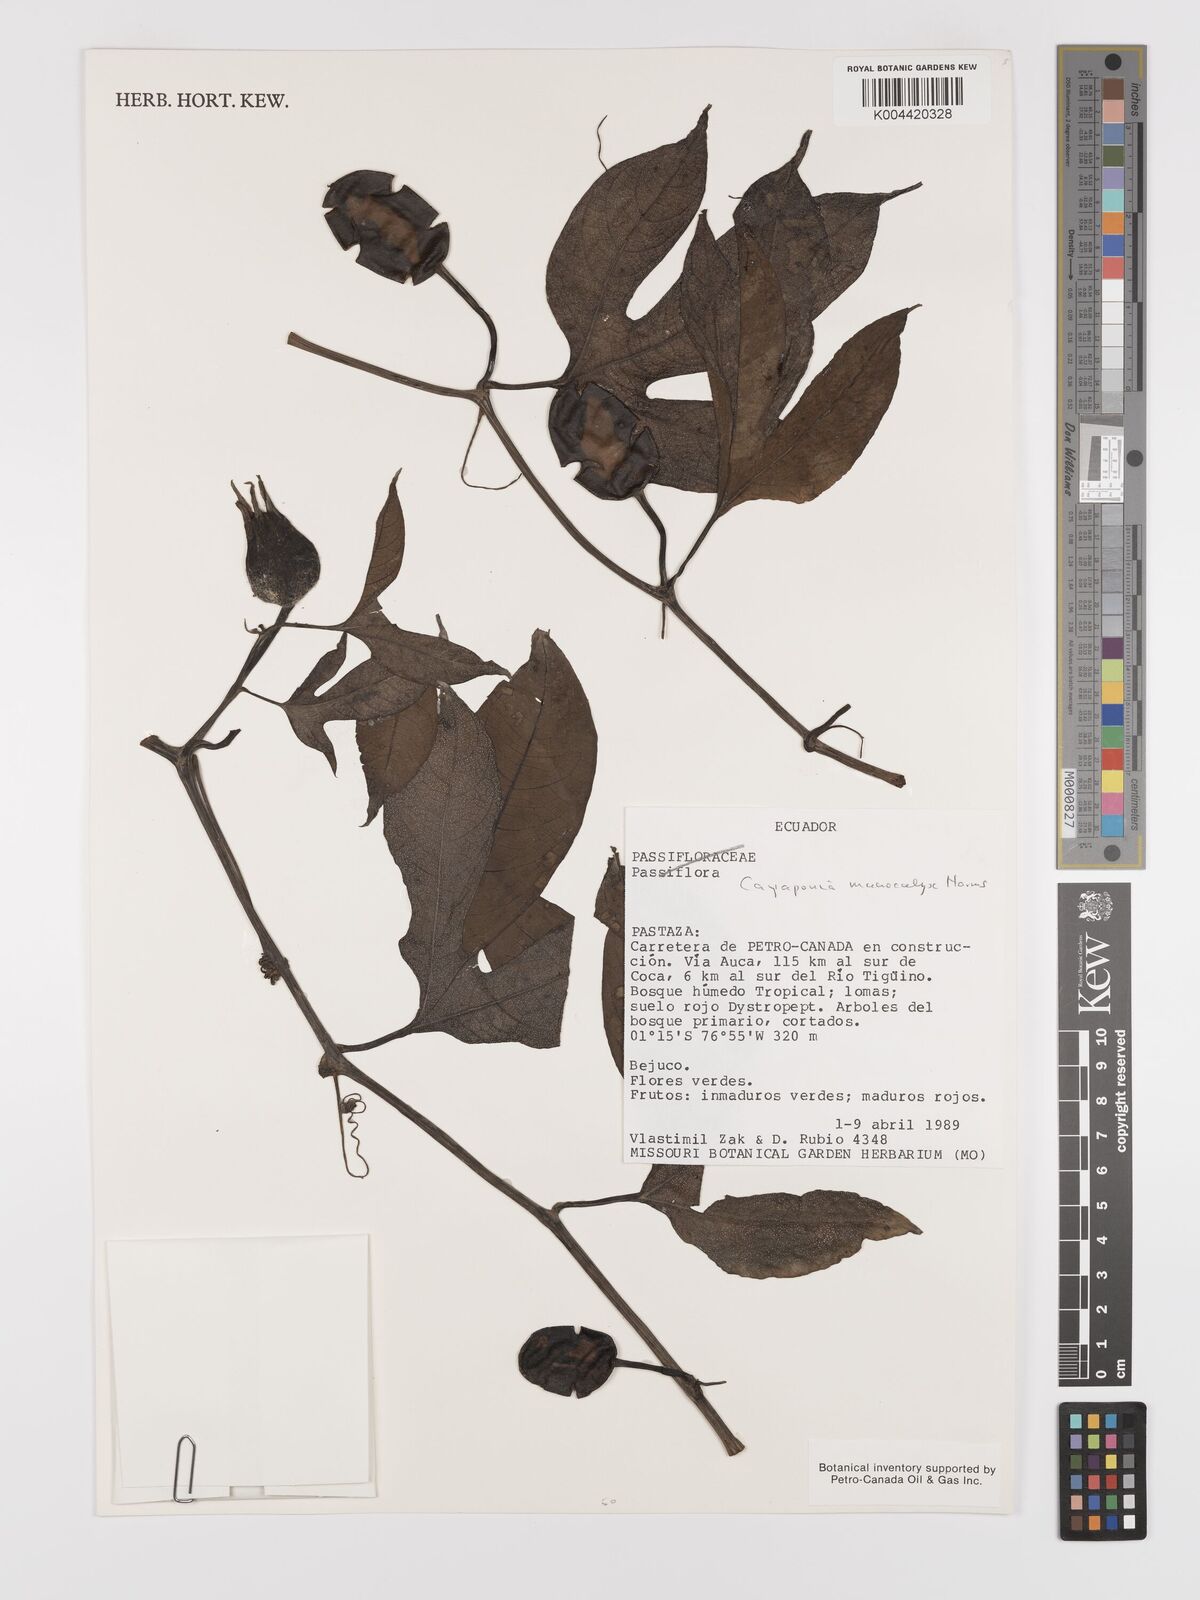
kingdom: Plantae
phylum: Tracheophyta
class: Magnoliopsida
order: Cucurbitales
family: Cucurbitaceae
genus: Cayaponia
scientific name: Cayaponia macrocalyx
